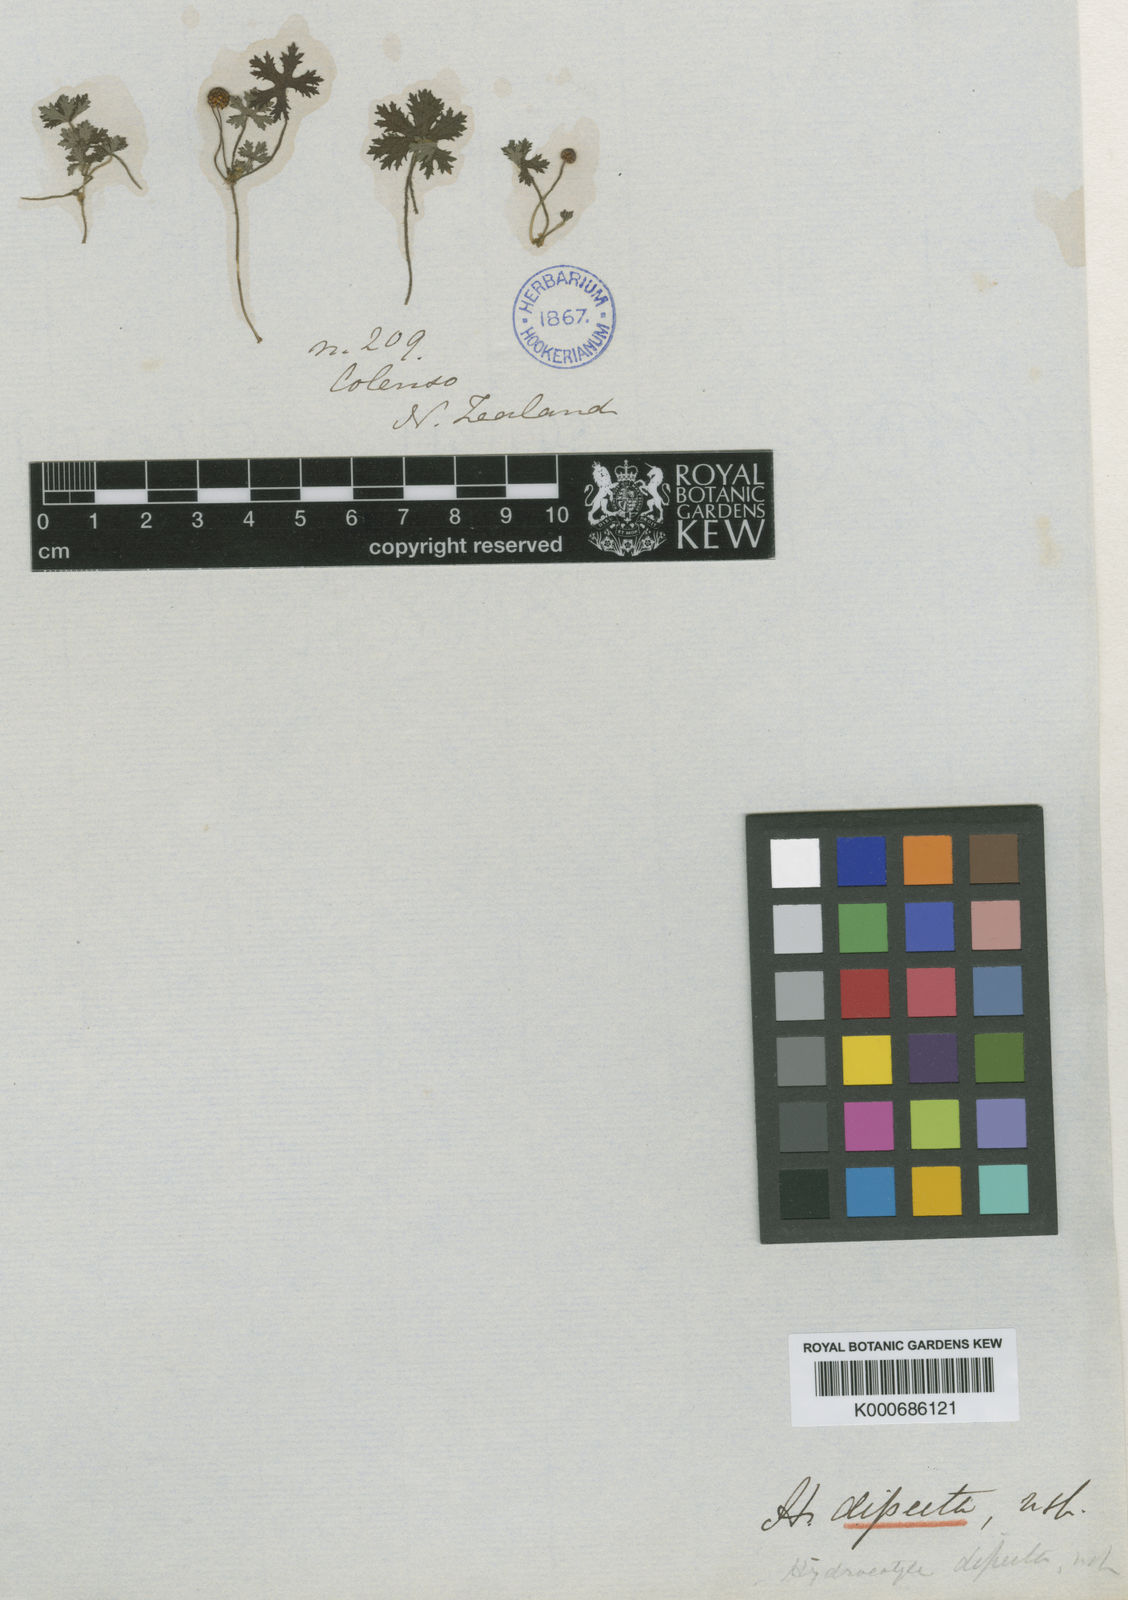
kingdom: Plantae
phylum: Tracheophyta
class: Magnoliopsida
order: Apiales
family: Araliaceae
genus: Hydrocotyle
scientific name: Hydrocotyle dissecta
